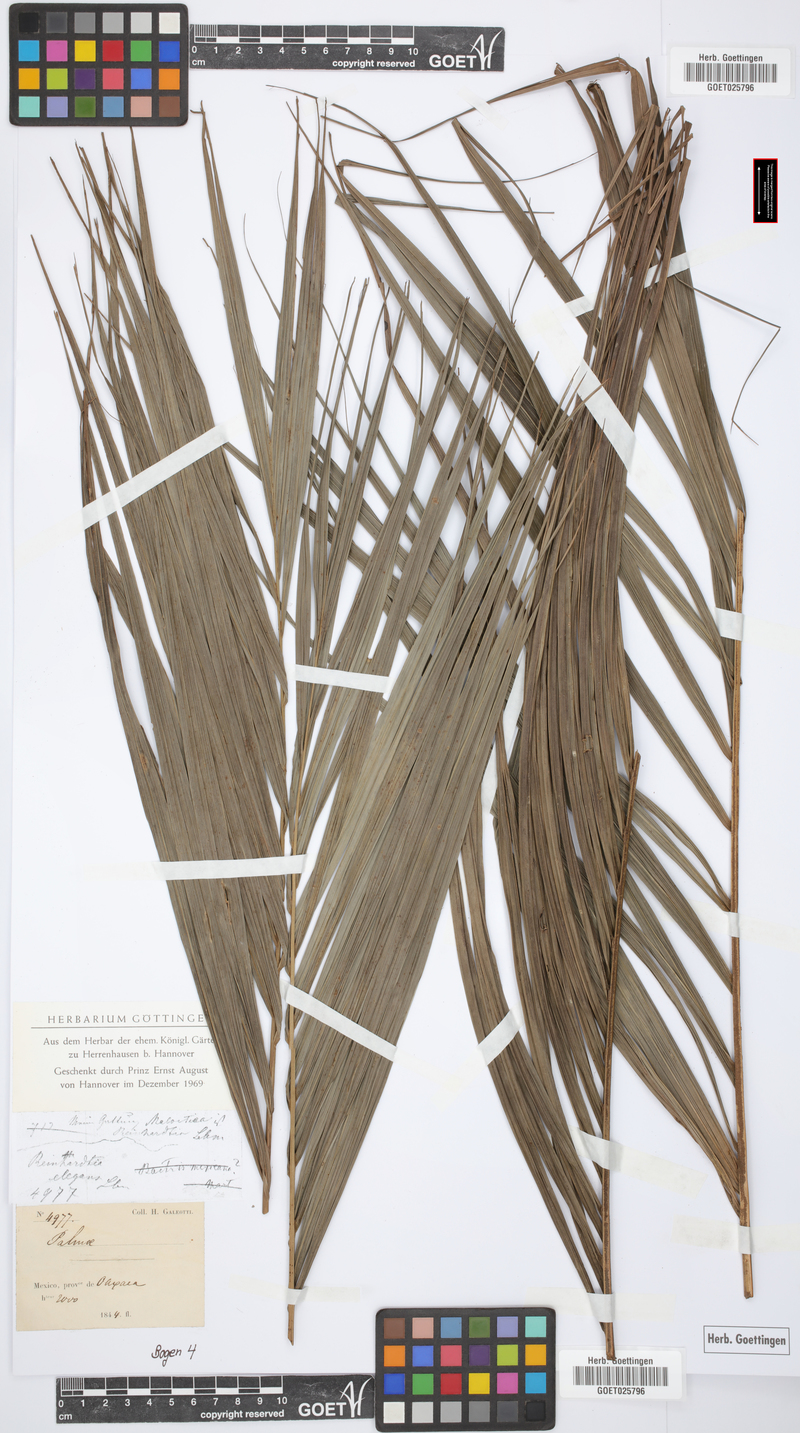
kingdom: Plantae
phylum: Tracheophyta
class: Liliopsida
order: Arecales
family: Arecaceae
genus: Reinhardtia
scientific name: Reinhardtia elegans
